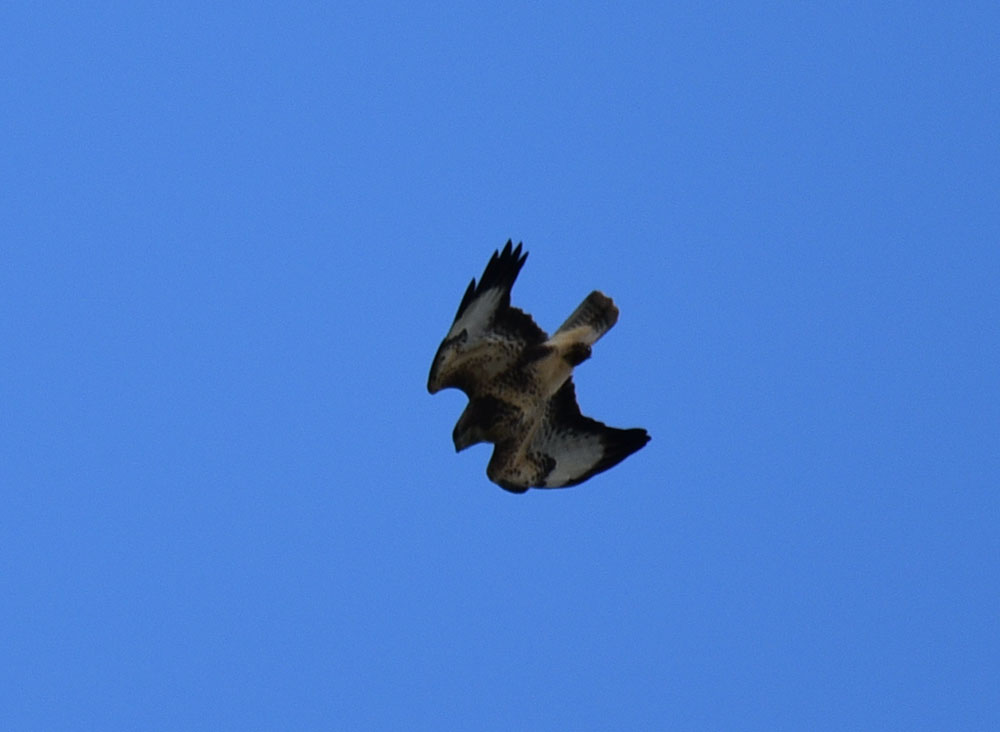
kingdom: Animalia
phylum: Chordata
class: Aves
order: Accipitriformes
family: Accipitridae
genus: Buteo
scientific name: Buteo buteo
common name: Common buzzard
